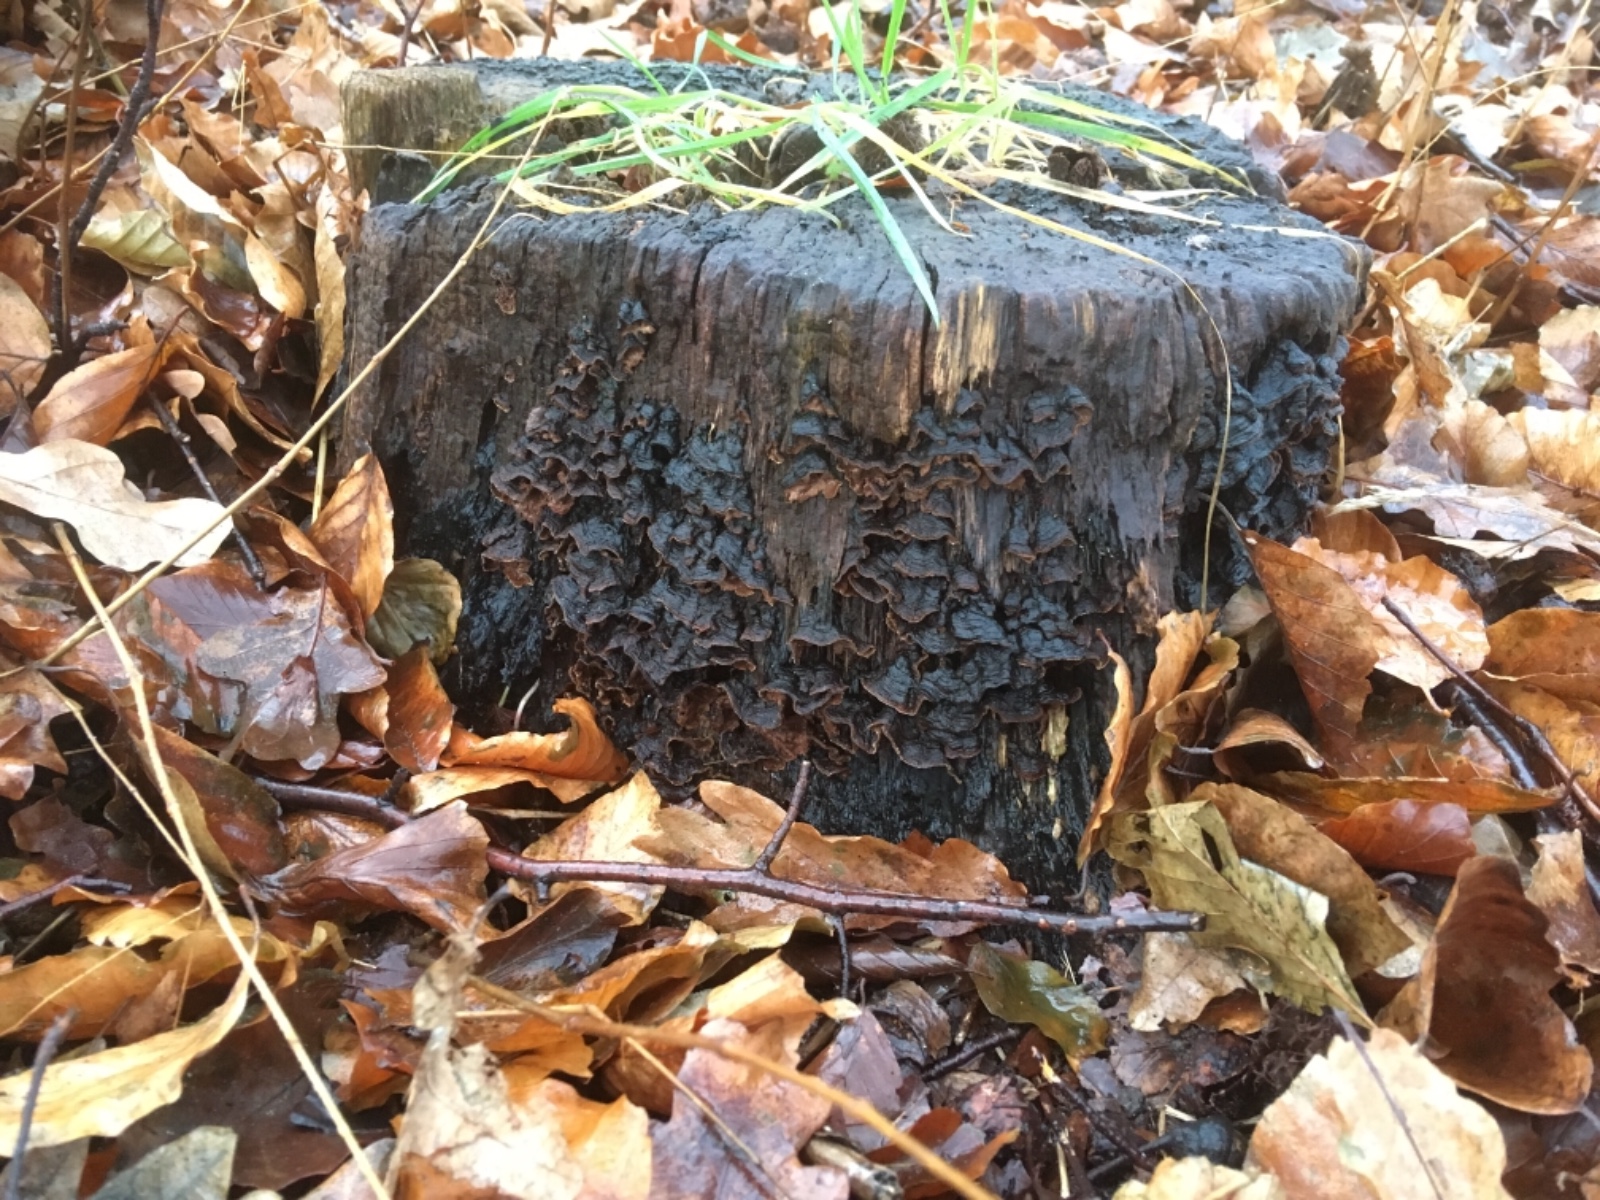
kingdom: Fungi
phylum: Basidiomycota
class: Agaricomycetes
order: Hymenochaetales
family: Hymenochaetaceae
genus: Hymenochaete
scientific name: Hymenochaete rubiginosa
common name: stiv ruslædersvamp
